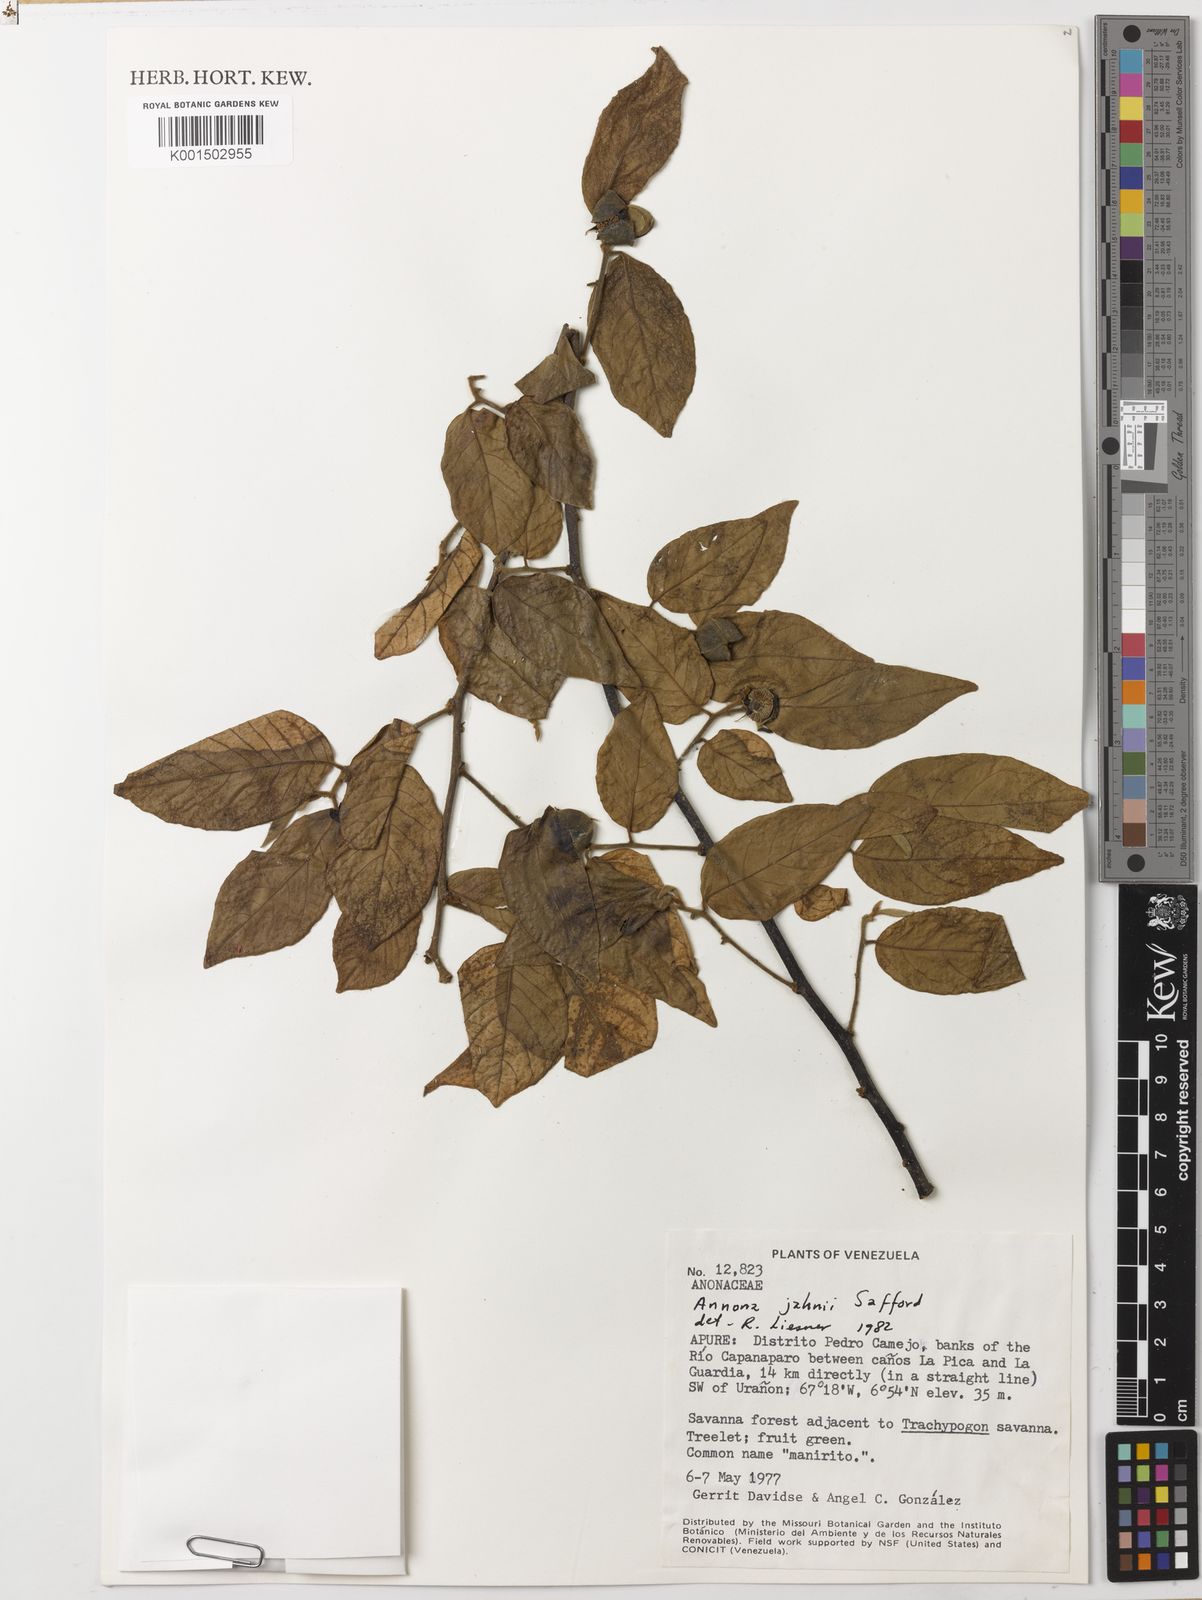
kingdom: Plantae
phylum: Tracheophyta
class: Magnoliopsida
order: Magnoliales
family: Annonaceae
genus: Annona
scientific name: Annona jahnii
